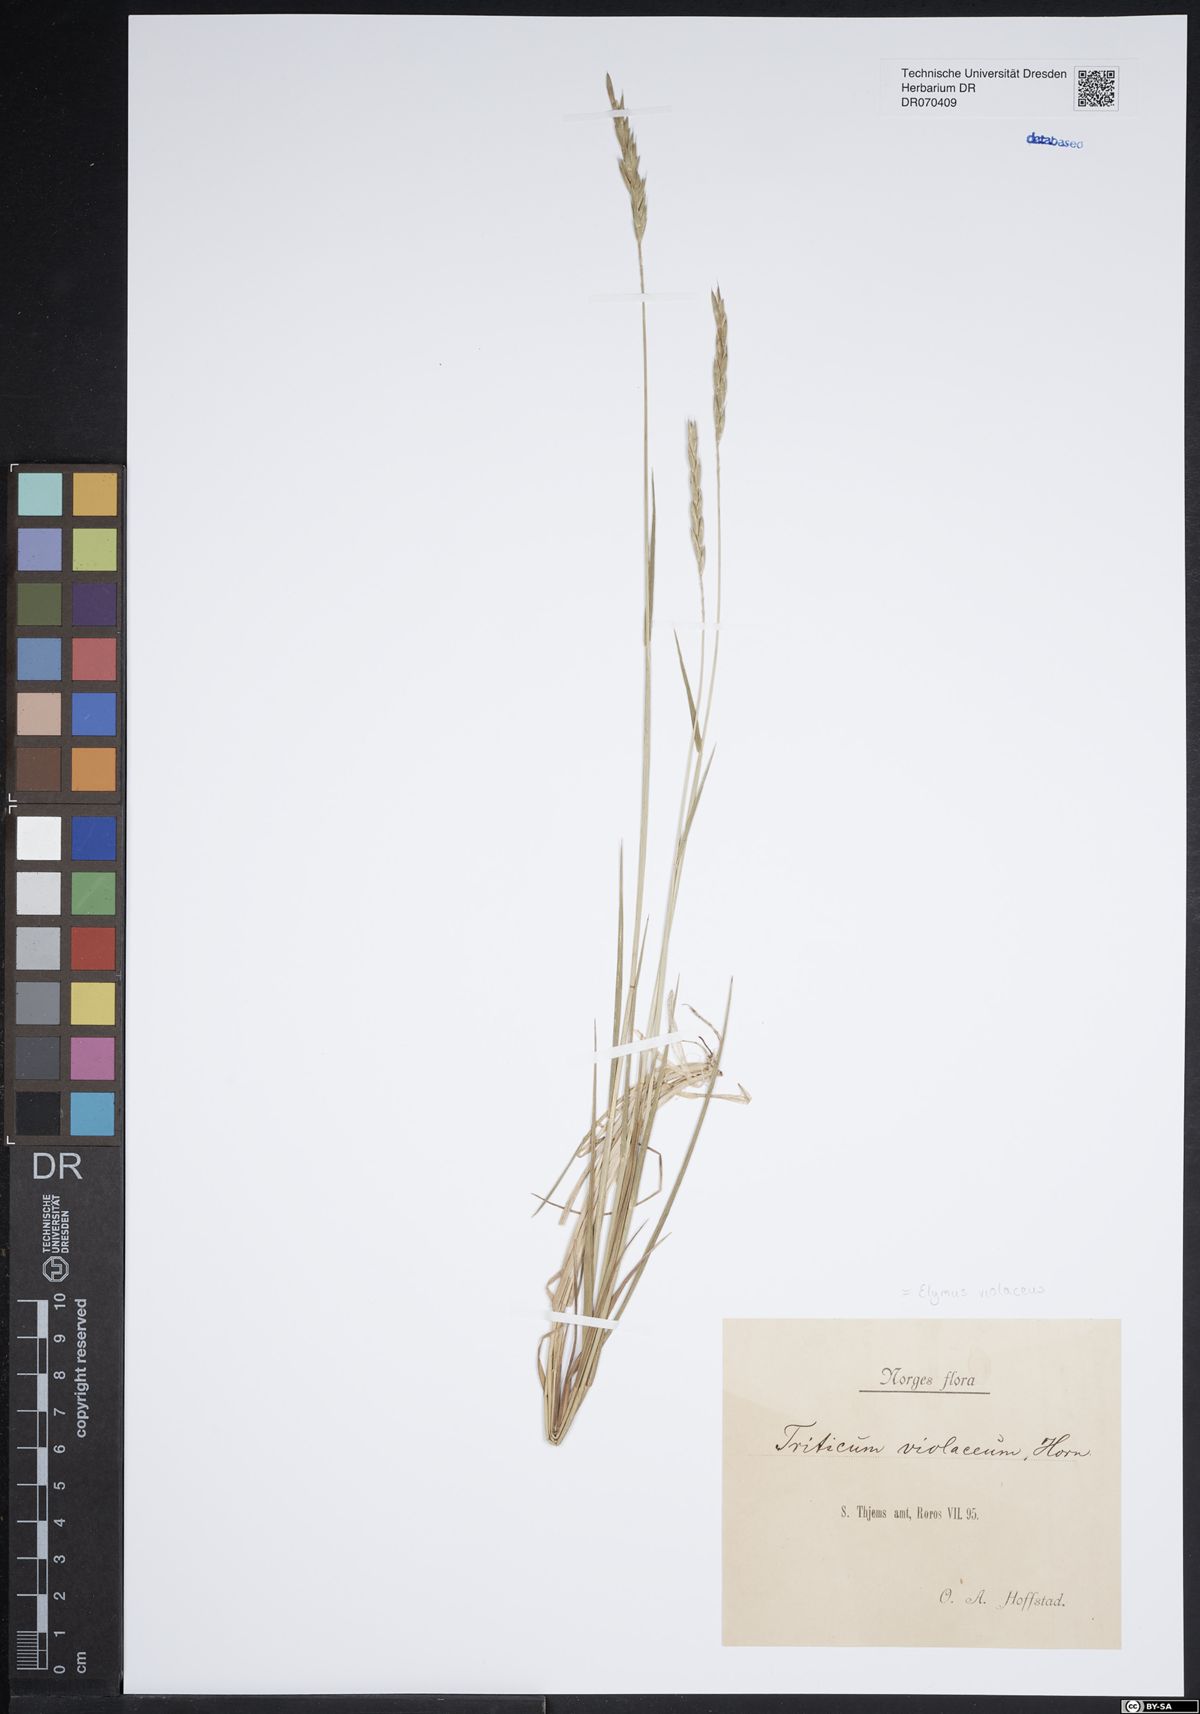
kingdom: Plantae
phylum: Tracheophyta
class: Liliopsida
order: Poales
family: Poaceae
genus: Elymus
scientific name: Elymus violaceus
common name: Arctic wheatgrass
